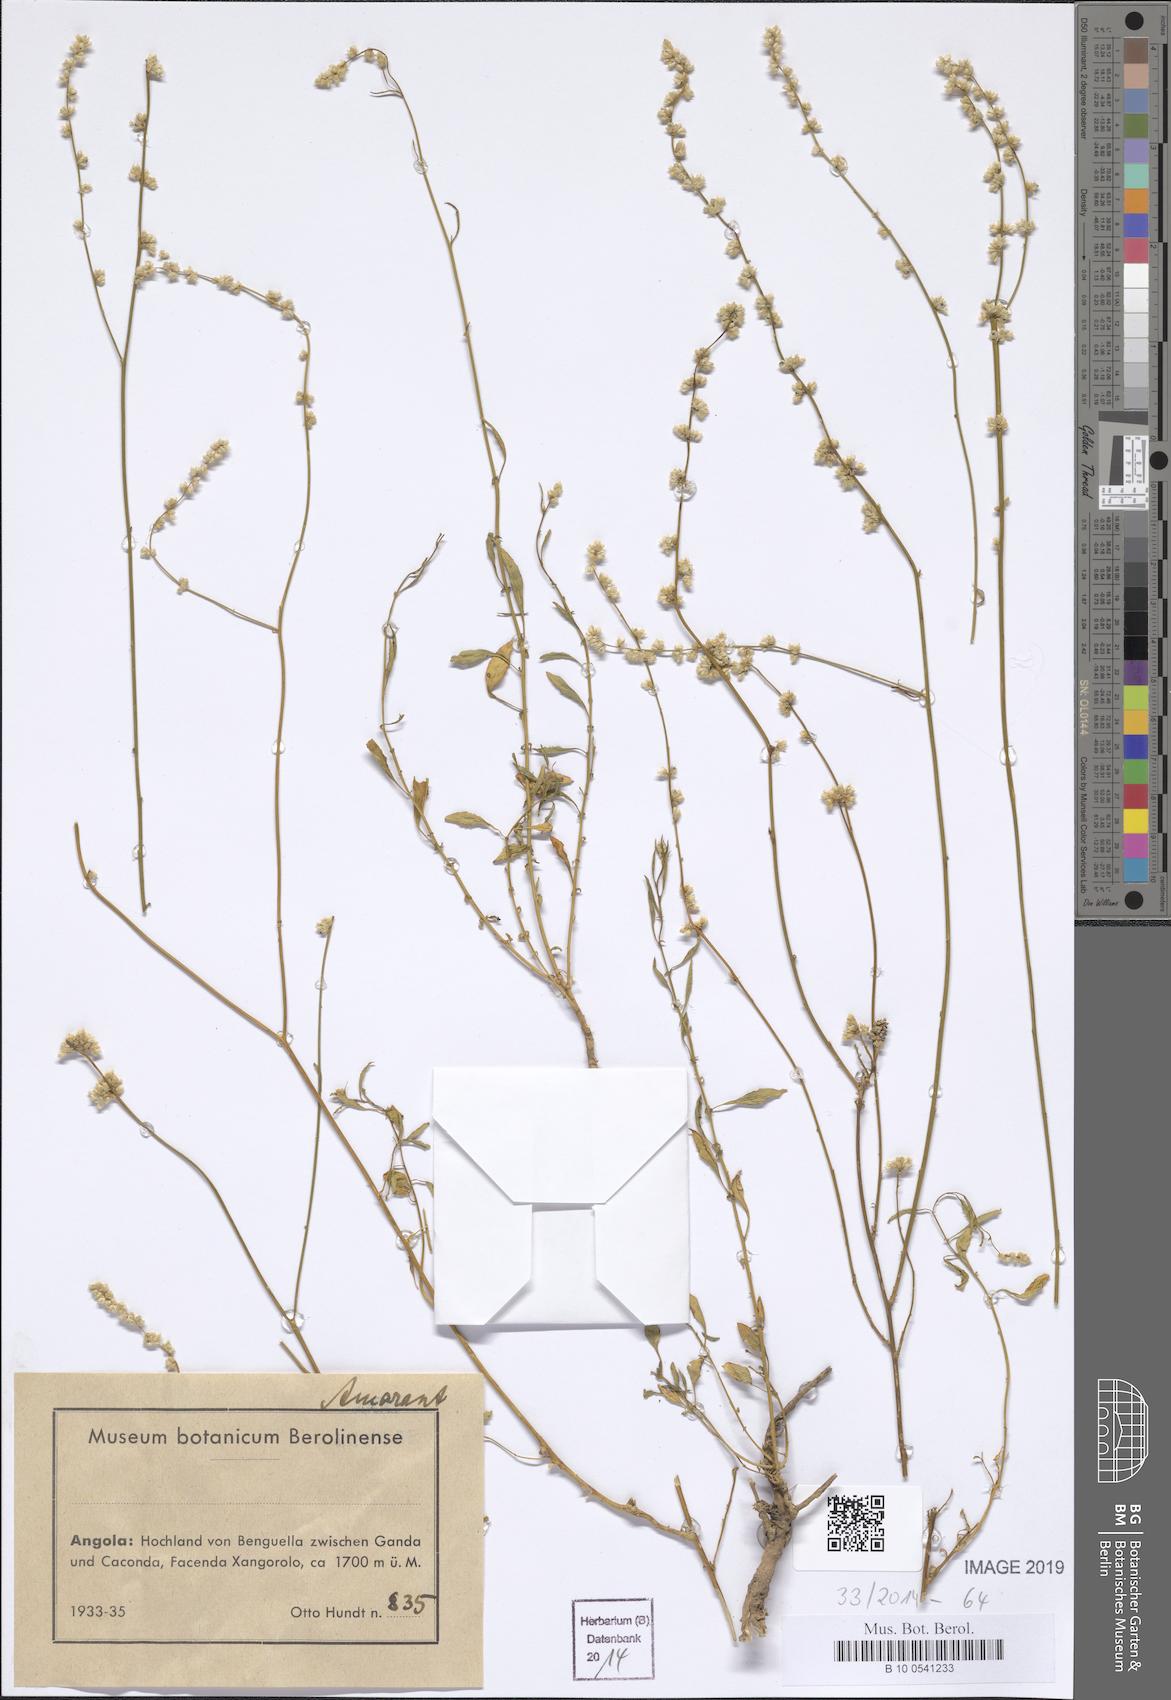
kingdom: Plantae
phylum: Tracheophyta
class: Magnoliopsida
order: Caryophyllales
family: Amaranthaceae
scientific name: Amaranthaceae
